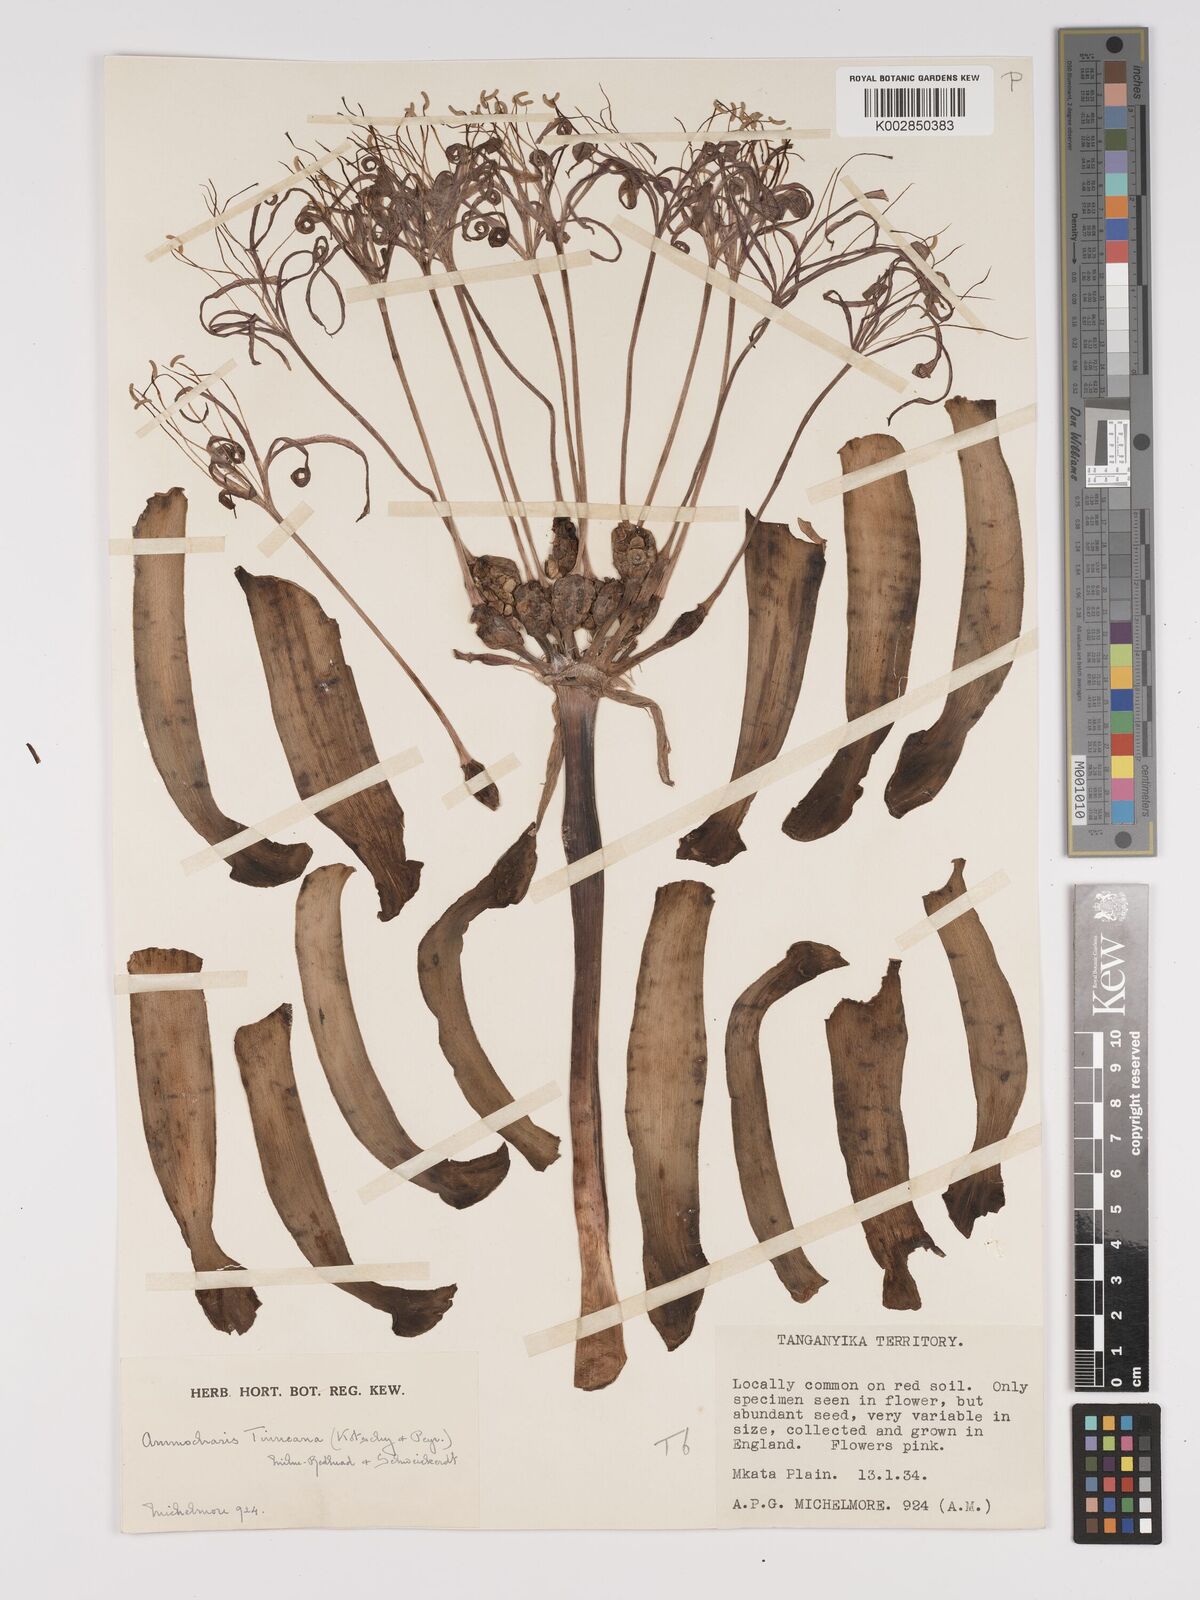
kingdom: Plantae
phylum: Tracheophyta
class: Liliopsida
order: Asparagales
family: Amaryllidaceae
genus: Ammocharis
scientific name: Ammocharis tinneana
